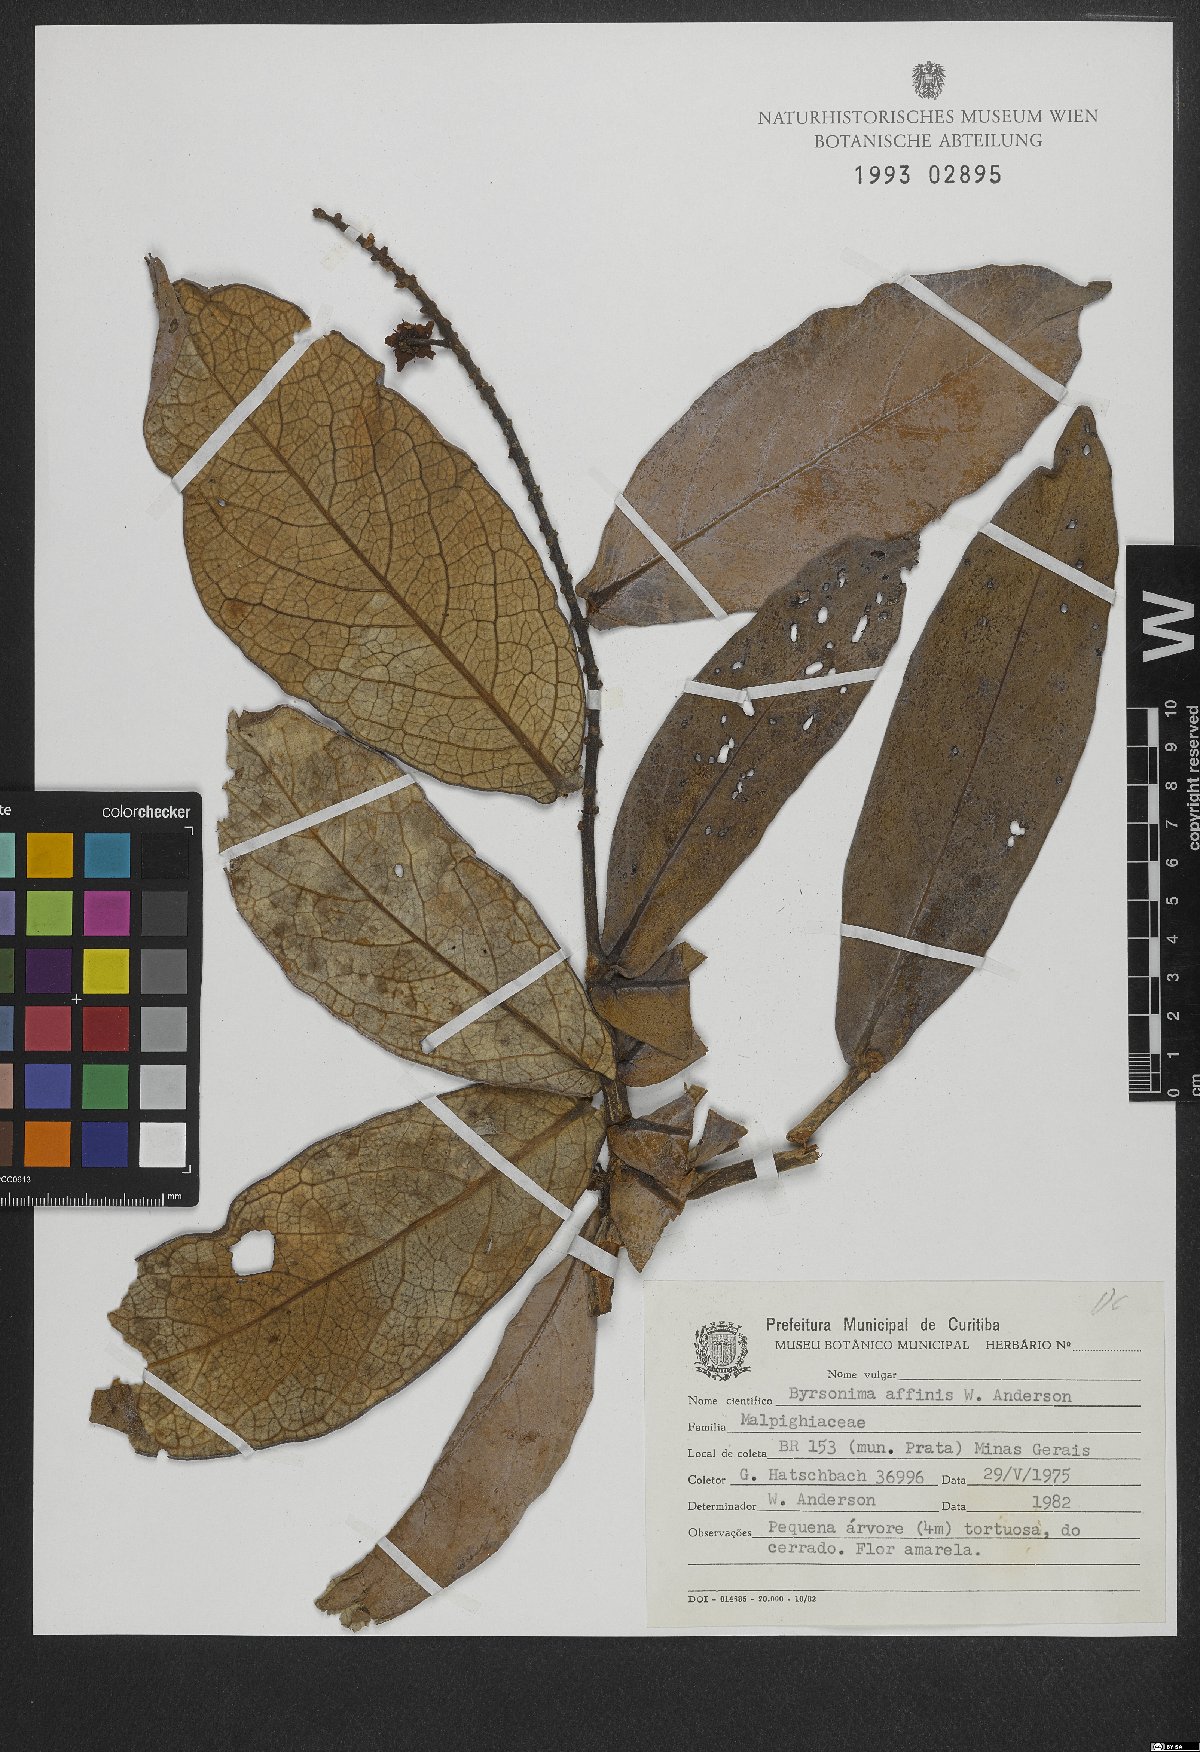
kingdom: Plantae
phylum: Tracheophyta
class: Magnoliopsida
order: Malpighiales
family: Malpighiaceae
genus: Byrsonima
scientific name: Byrsonima affinis
